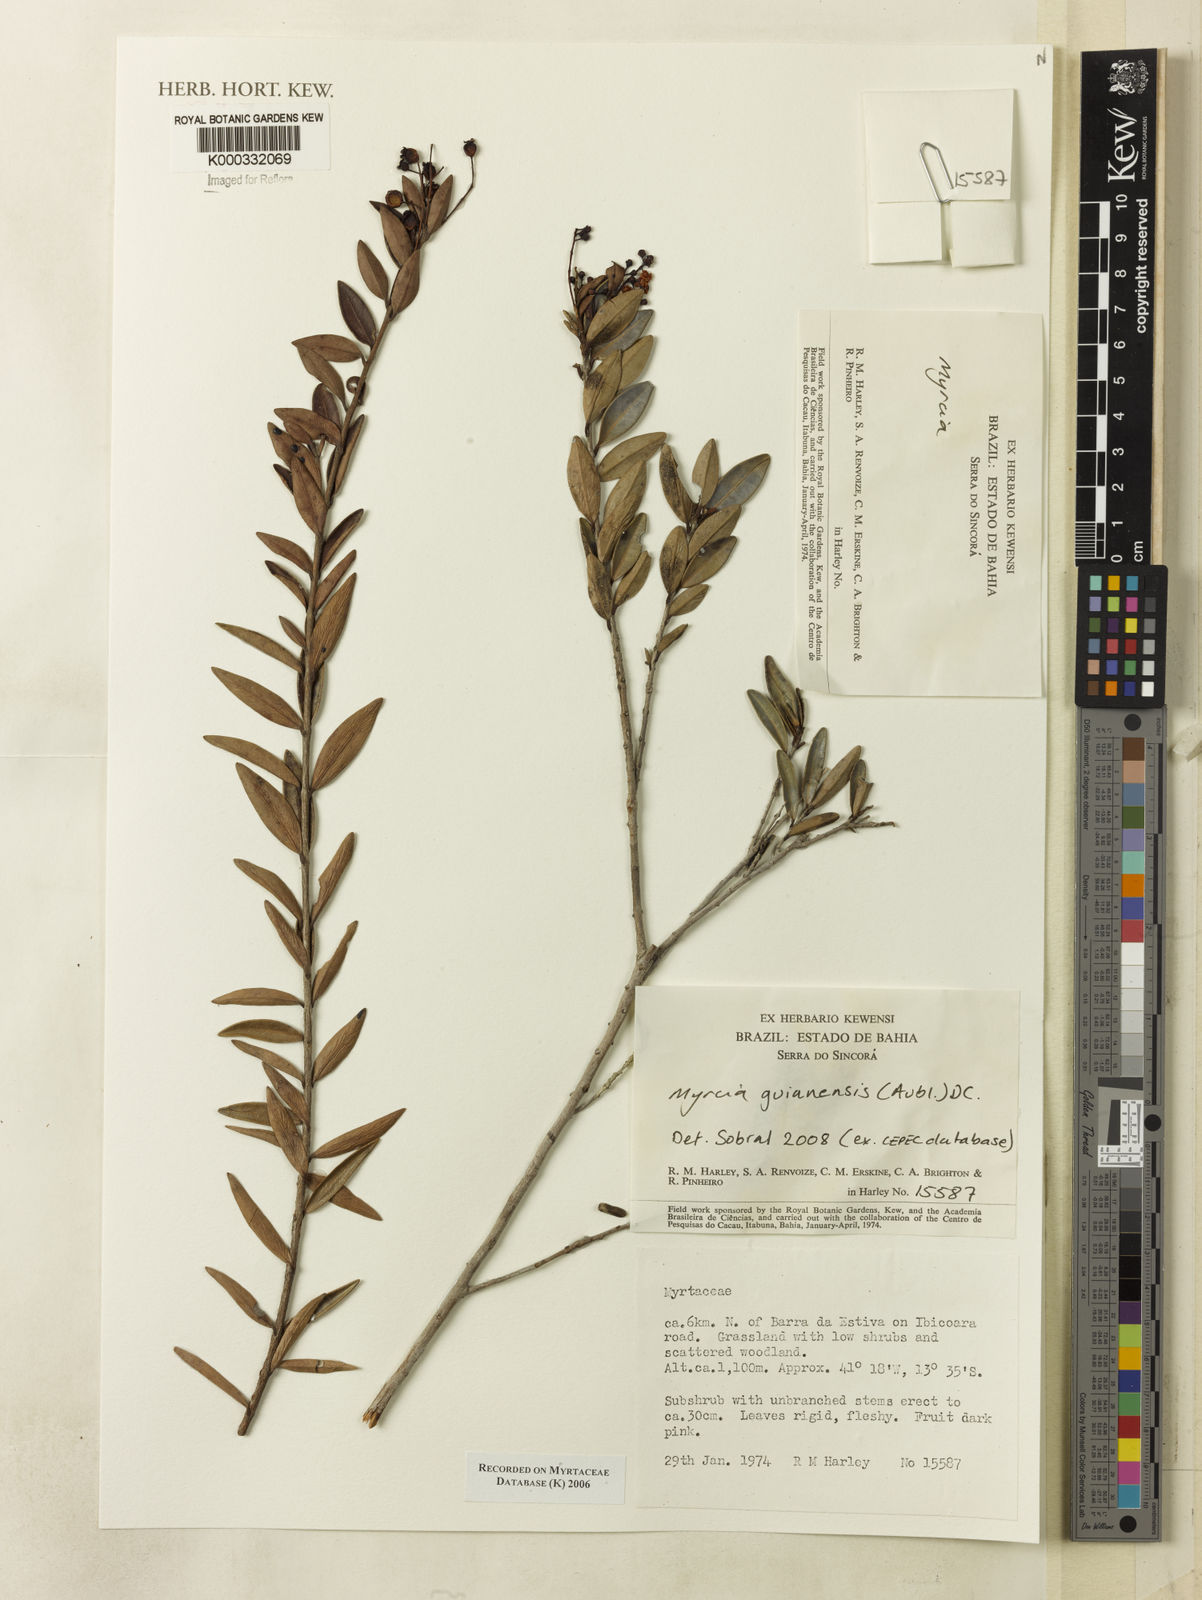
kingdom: Plantae
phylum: Tracheophyta
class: Magnoliopsida
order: Myrtales
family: Myrtaceae
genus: Myrcia
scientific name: Myrcia
